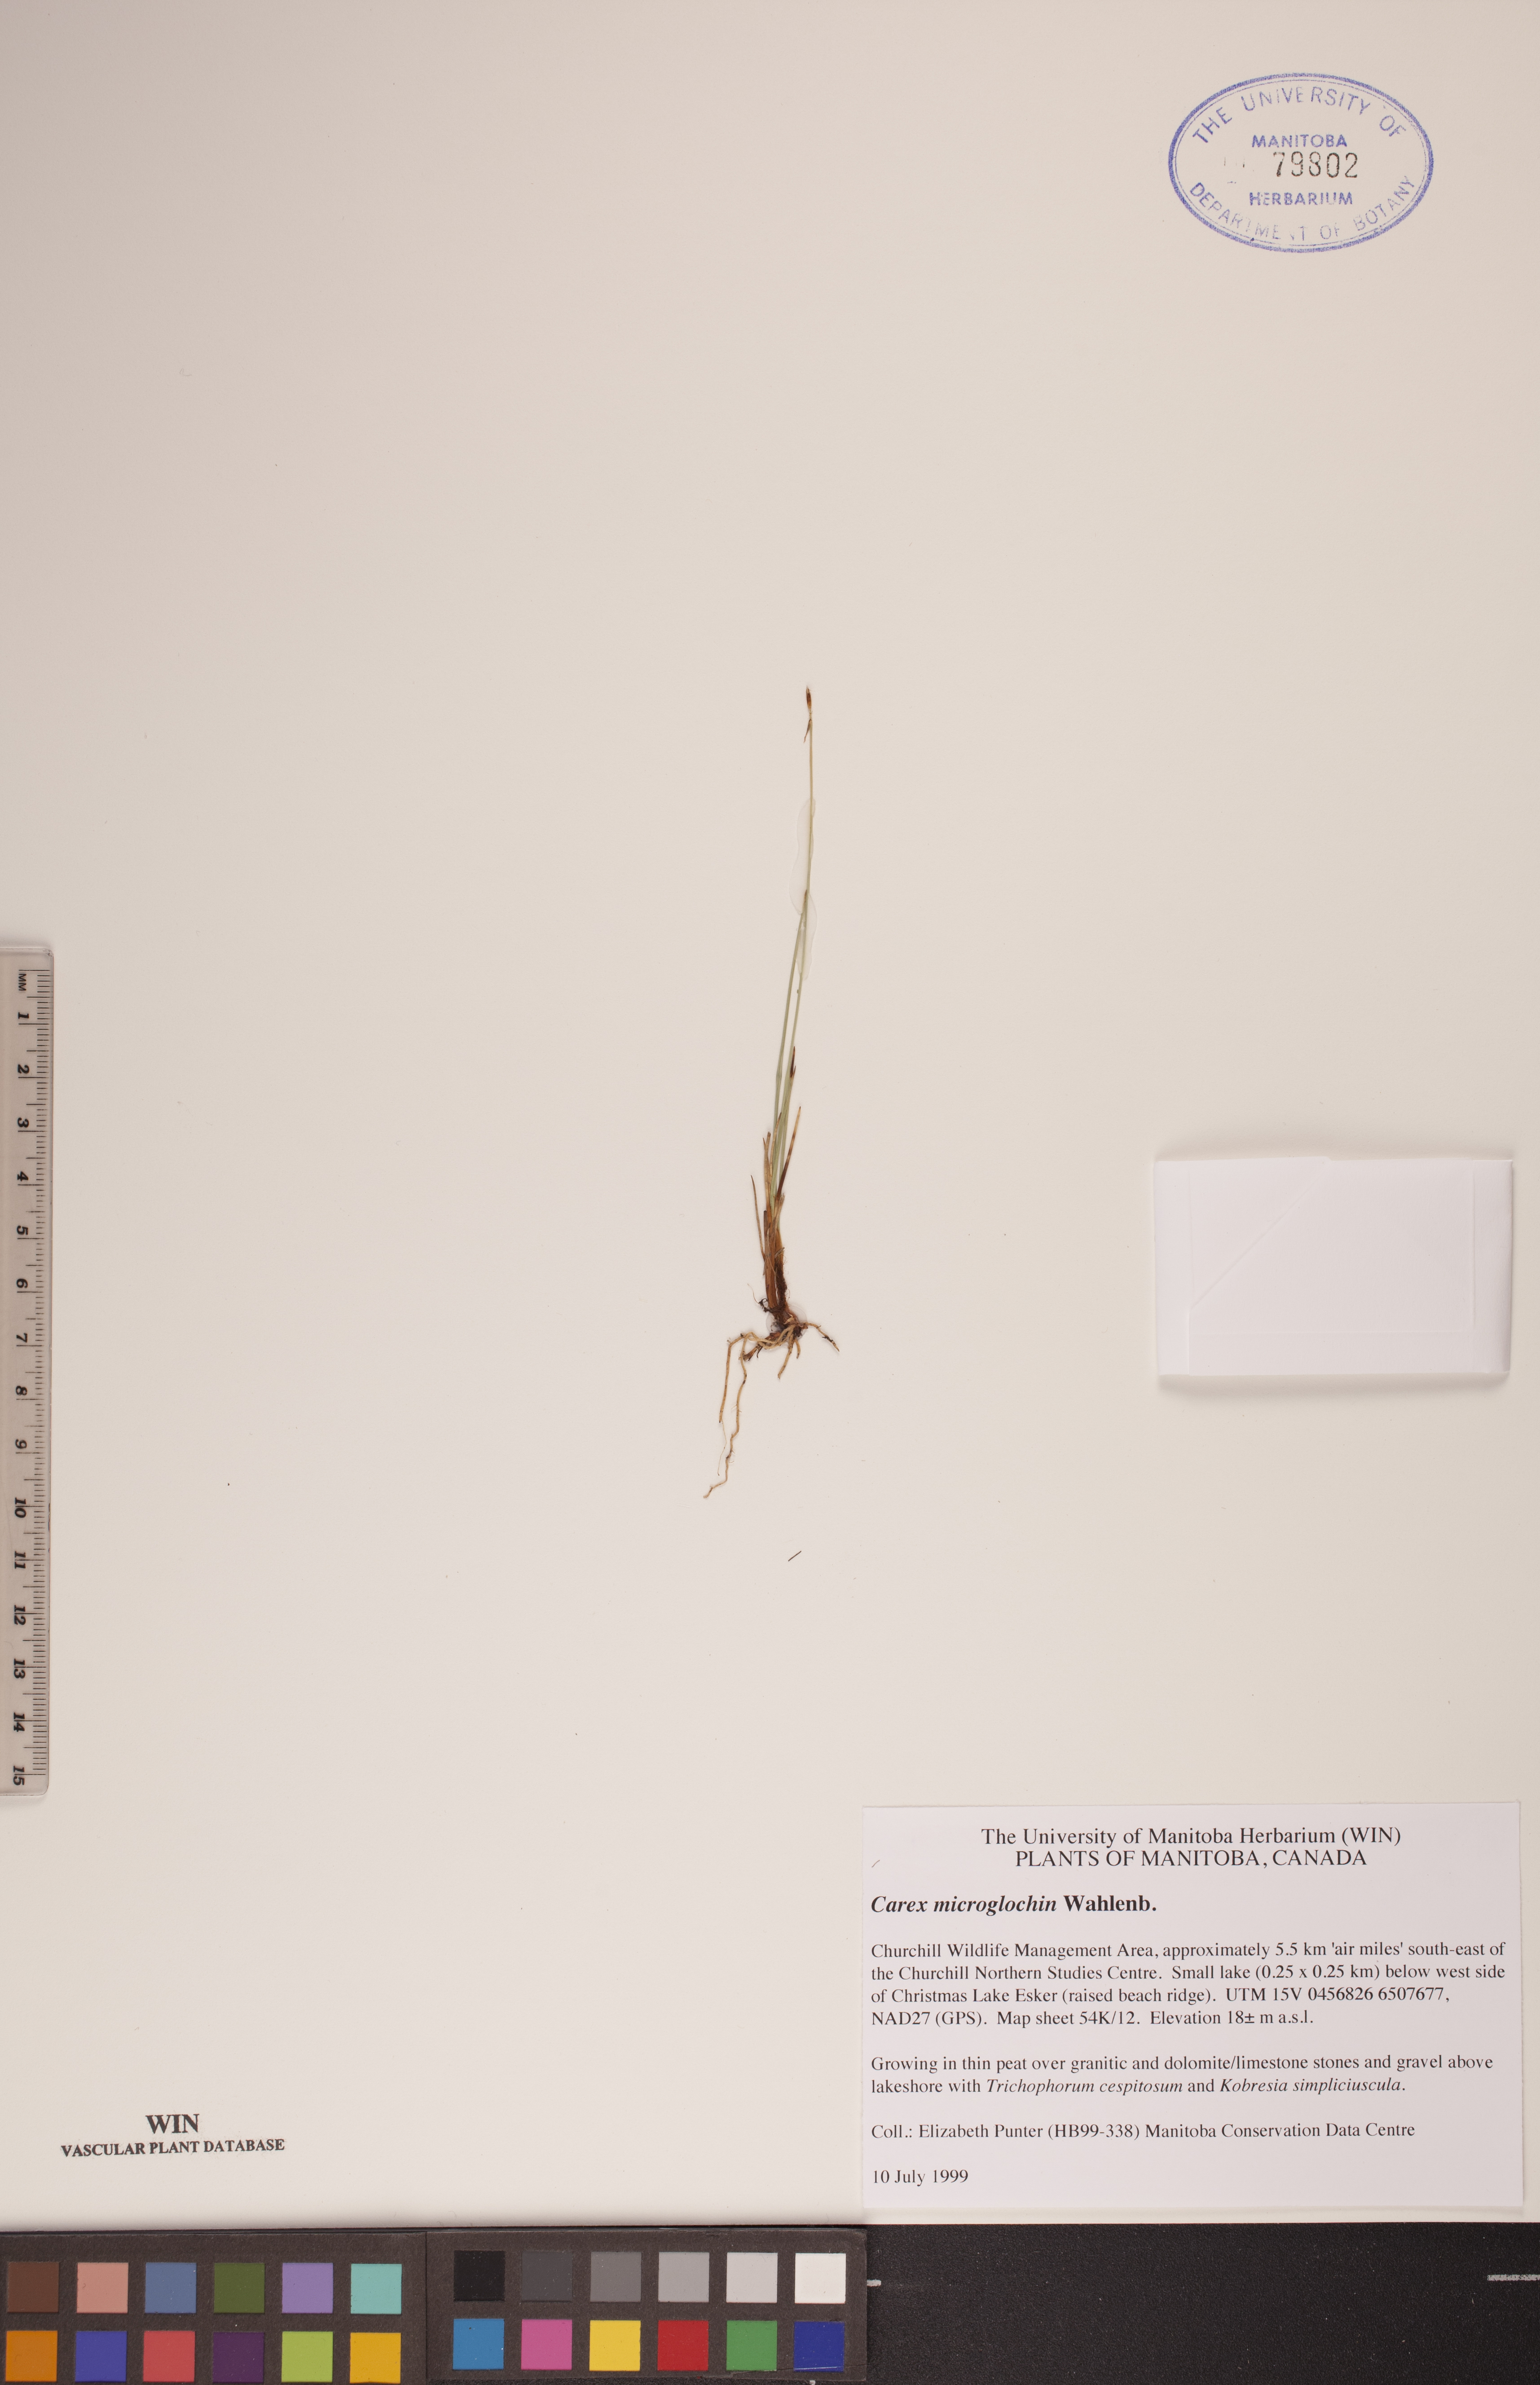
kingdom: Plantae
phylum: Tracheophyta
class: Liliopsida
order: Poales
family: Cyperaceae
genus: Carex
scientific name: Carex microglochin
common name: Bristle sedge
